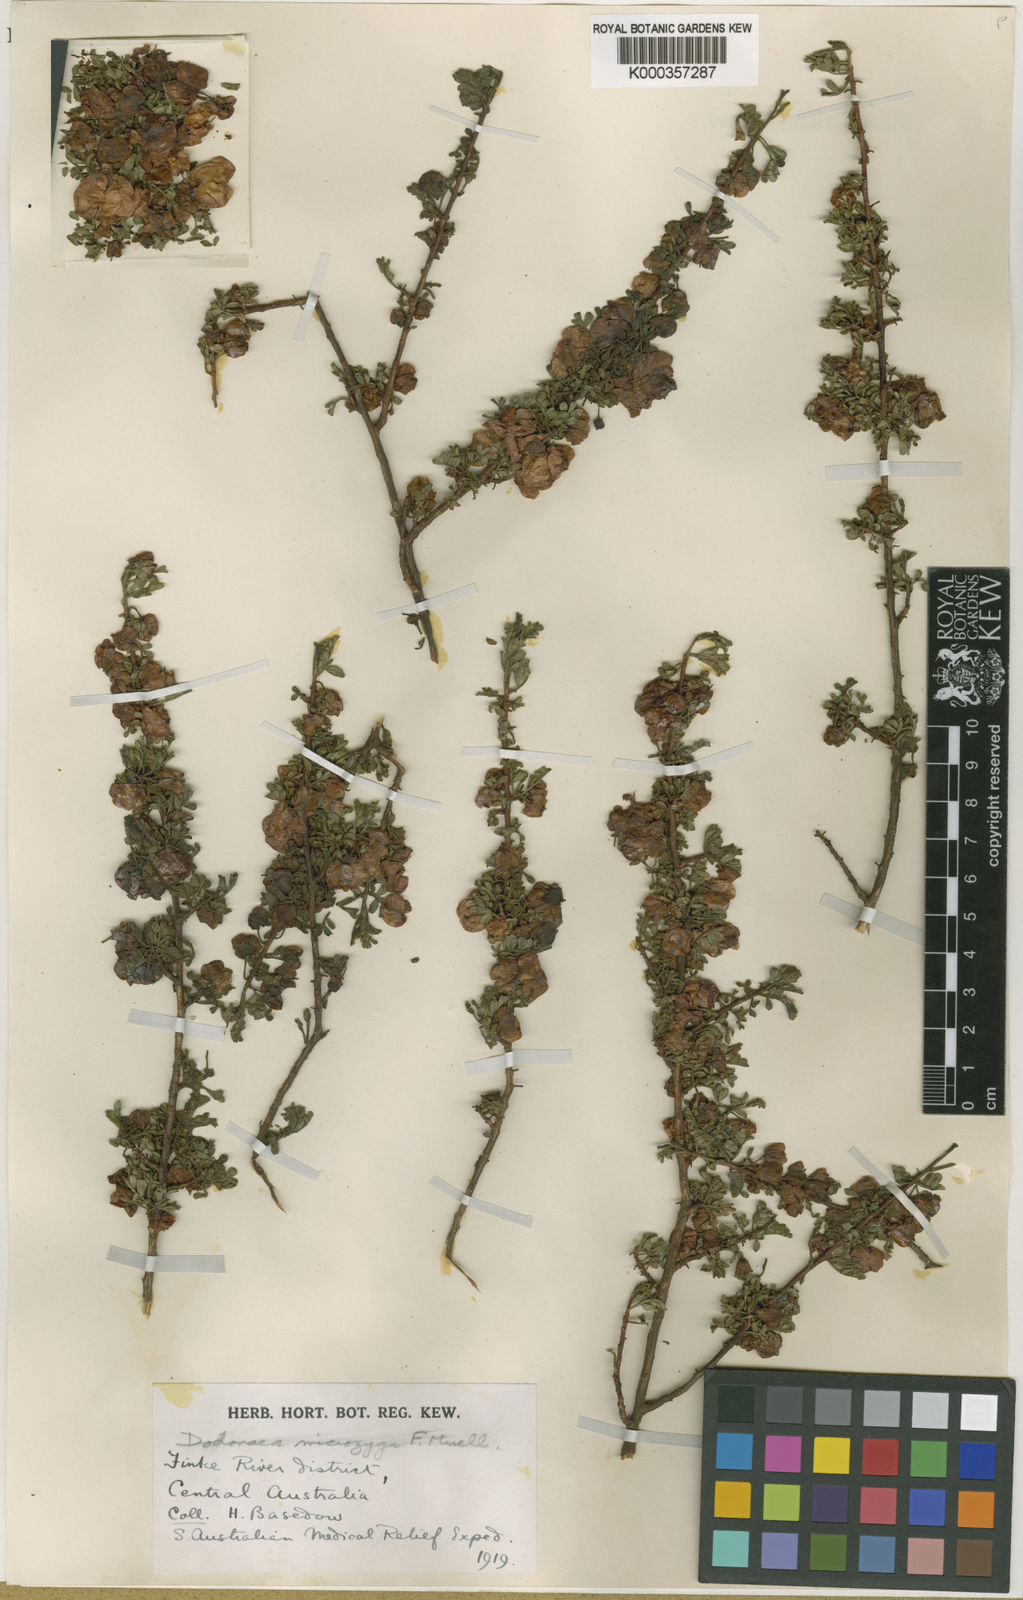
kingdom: Plantae
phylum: Tracheophyta
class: Magnoliopsida
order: Sapindales
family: Sapindaceae
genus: Dodonaea
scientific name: Dodonaea microzyga
